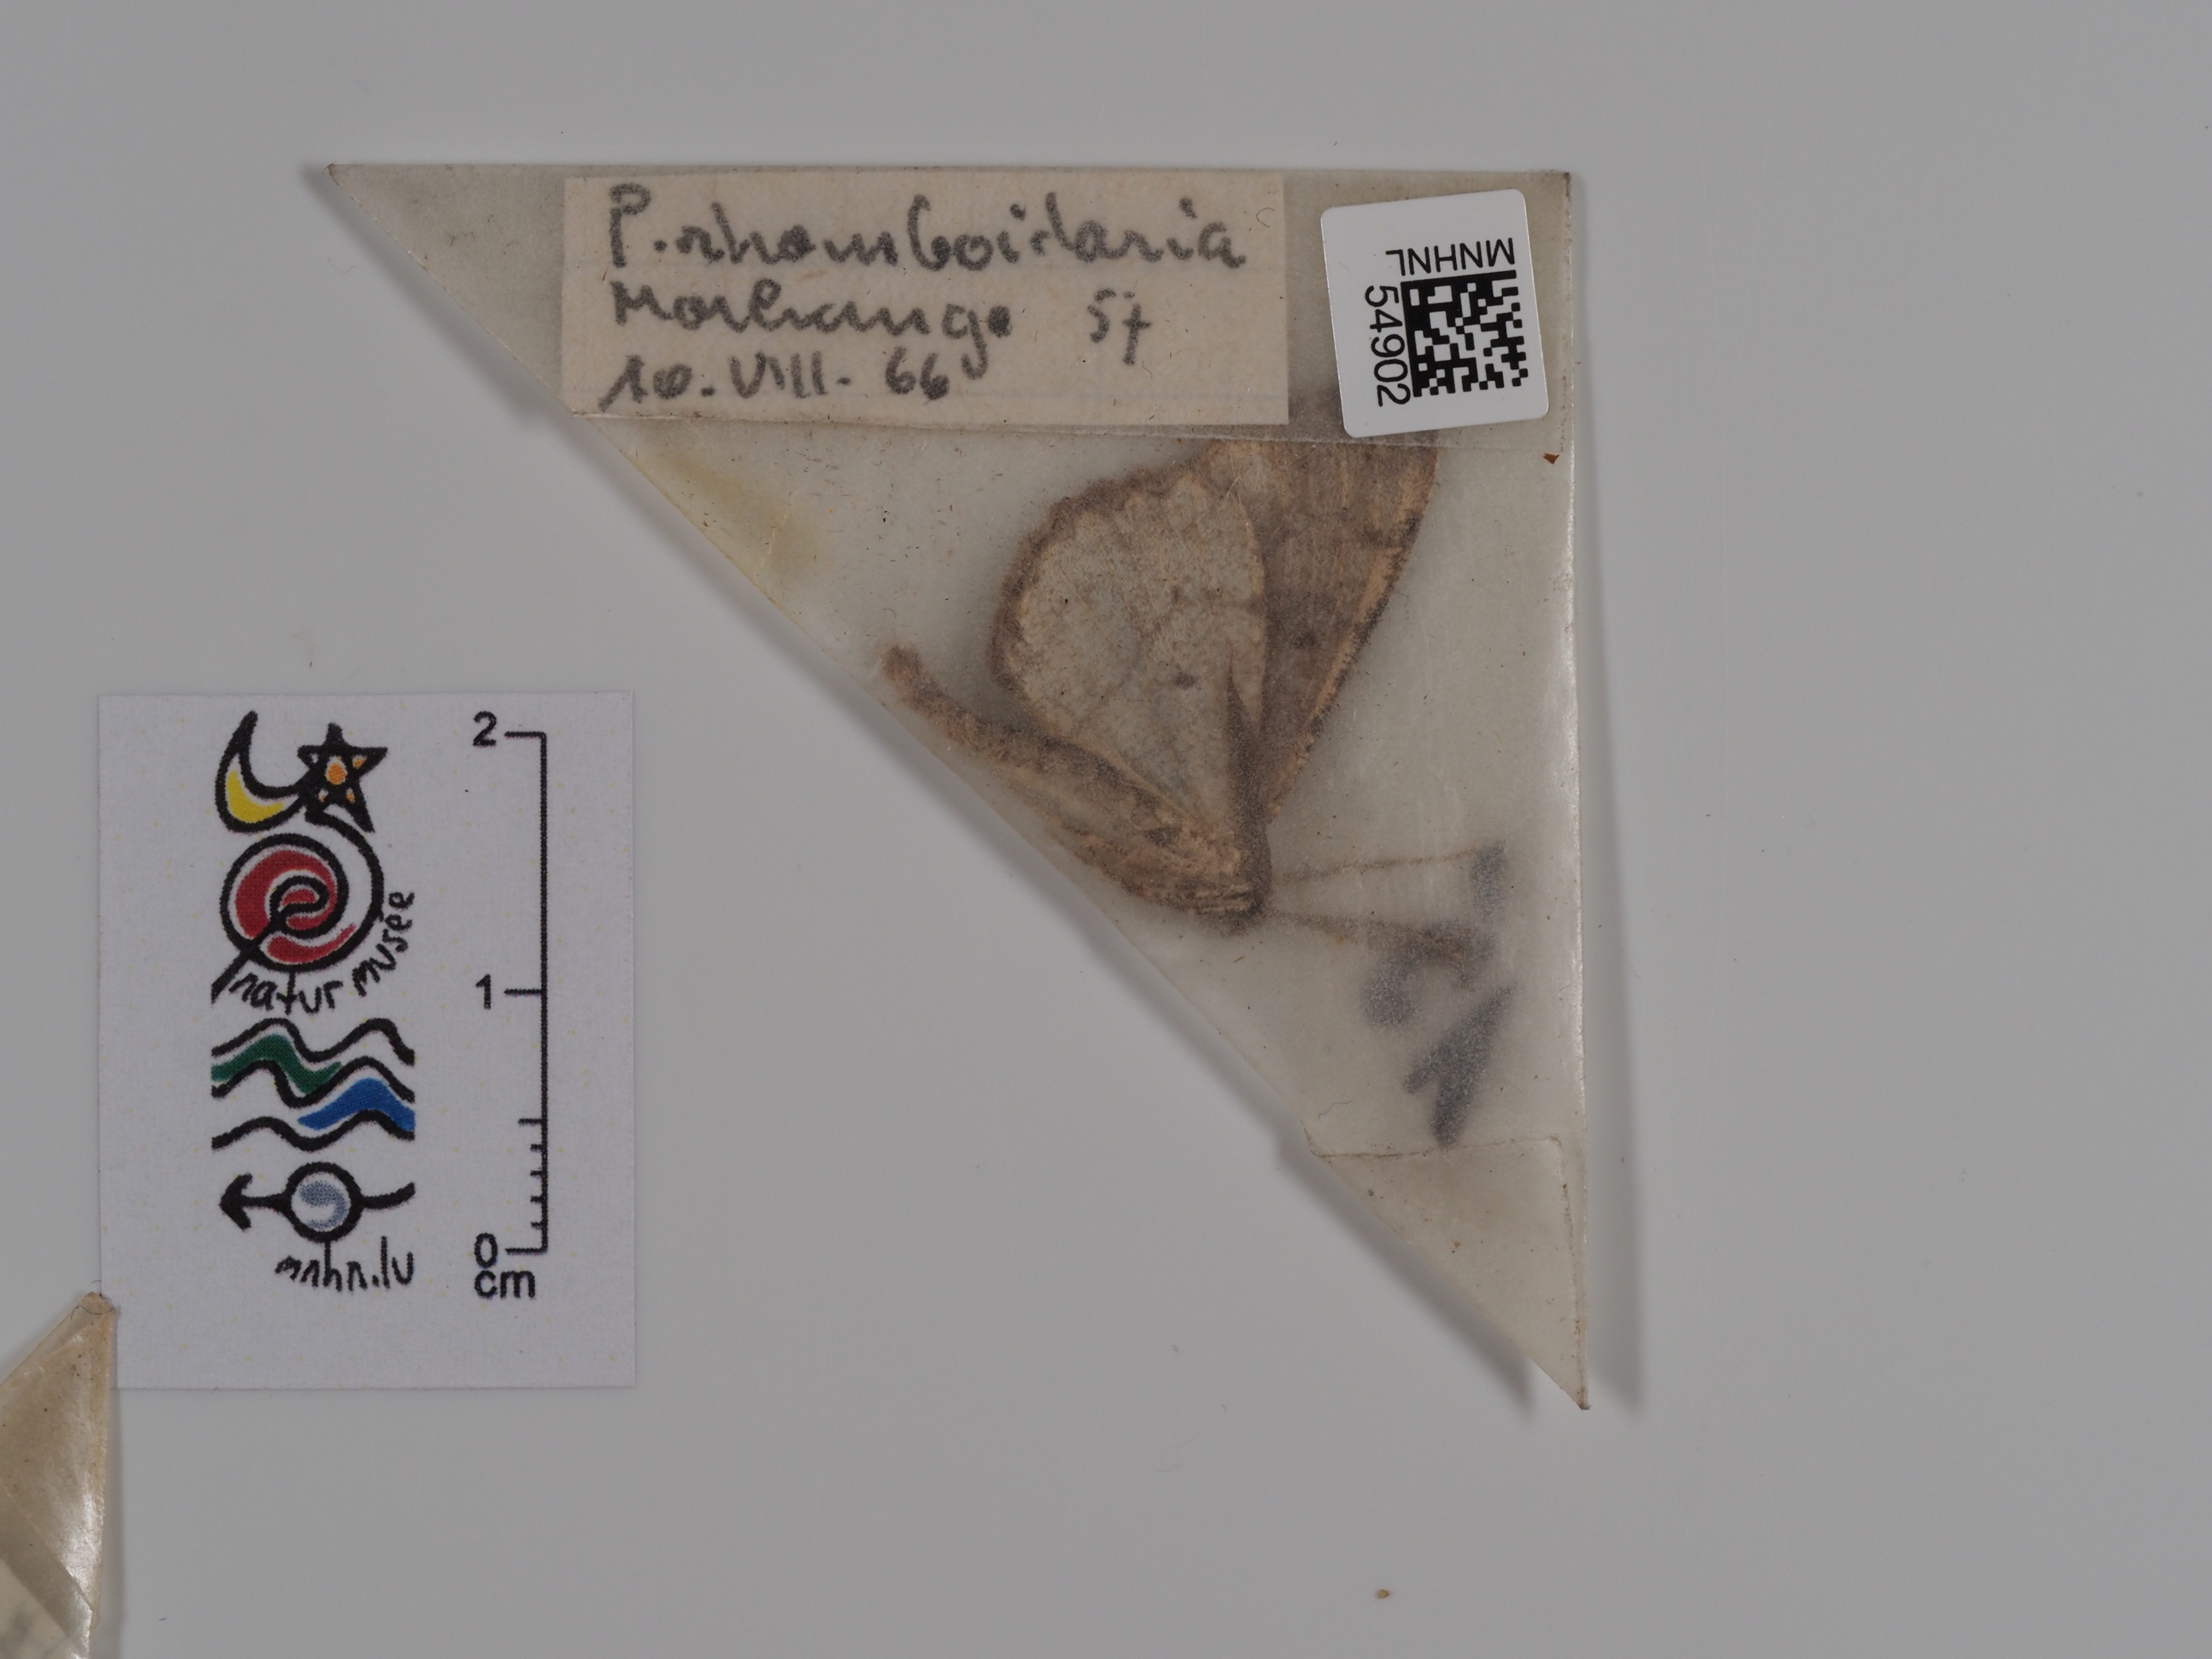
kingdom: Animalia
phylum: Arthropoda
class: Insecta
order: Lepidoptera
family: Geometridae
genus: Peribatodes
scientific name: Peribatodes rhomboidaria
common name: Willow beauty
